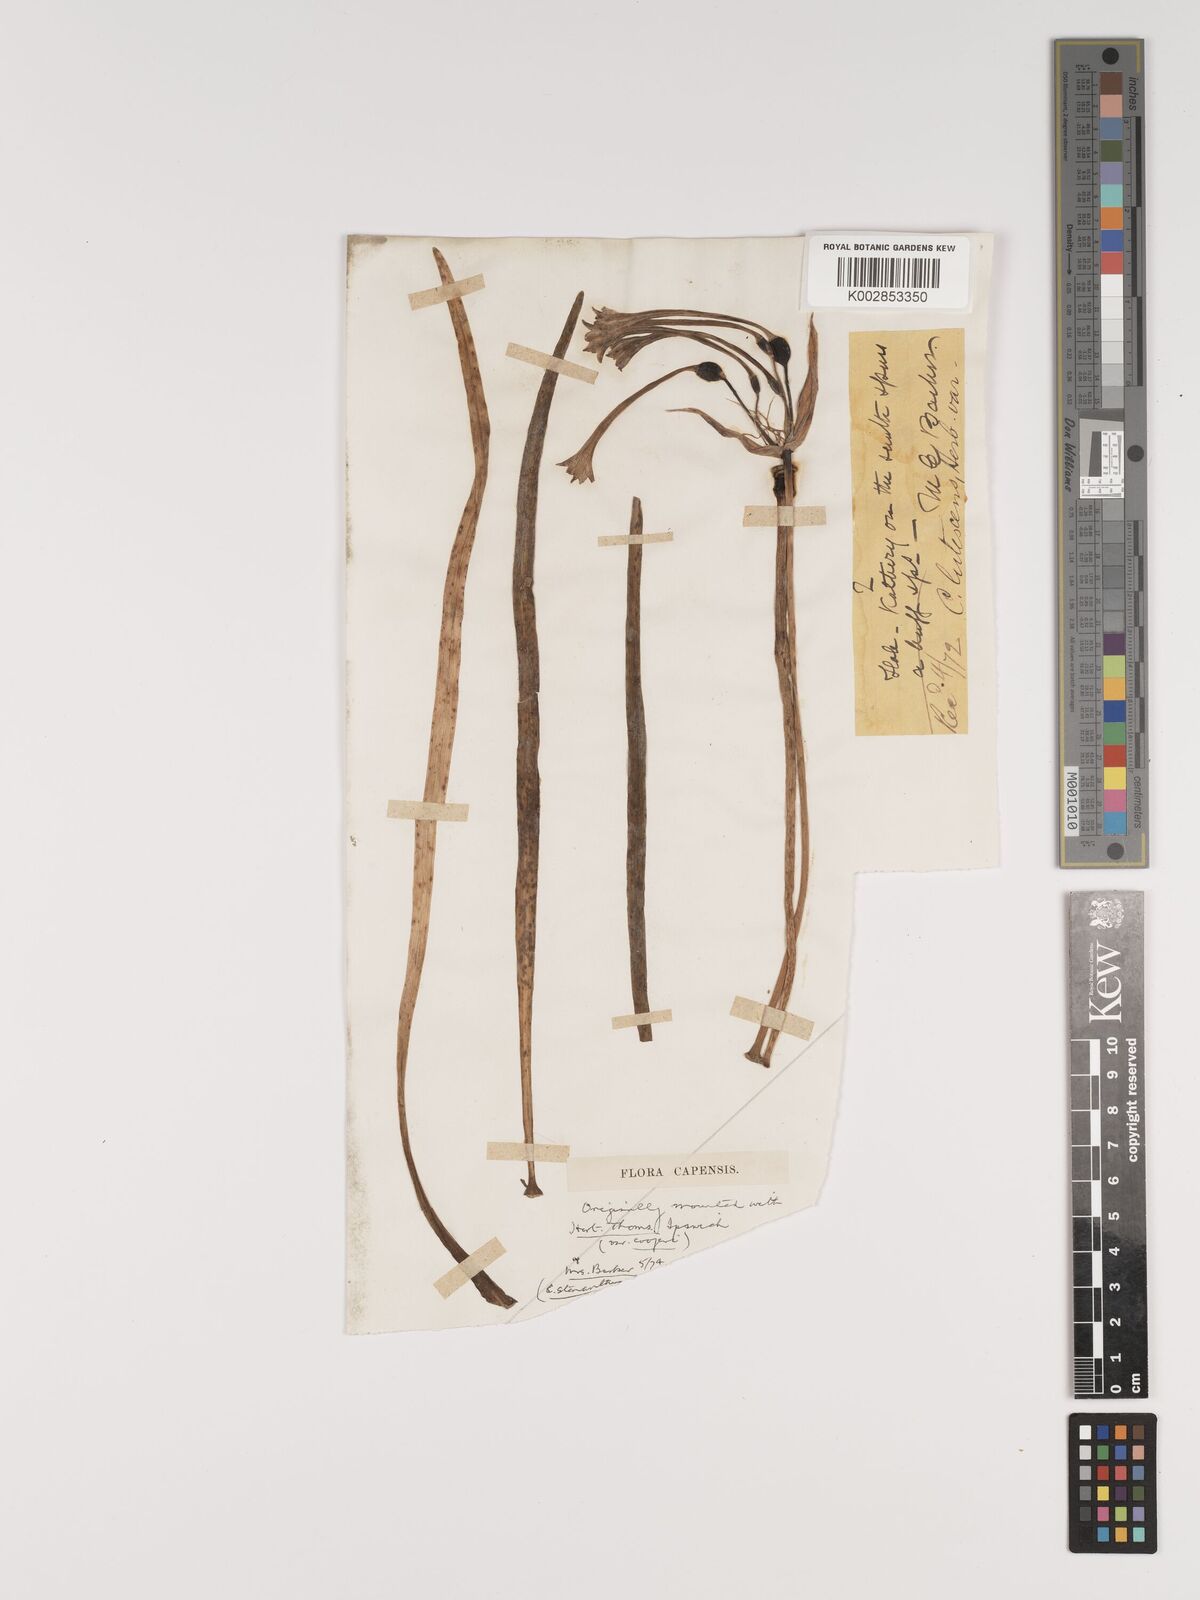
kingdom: Plantae
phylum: Tracheophyta
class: Liliopsida
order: Asparagales
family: Amaryllidaceae
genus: Cyrtanthus
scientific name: Cyrtanthus ochroleucus
